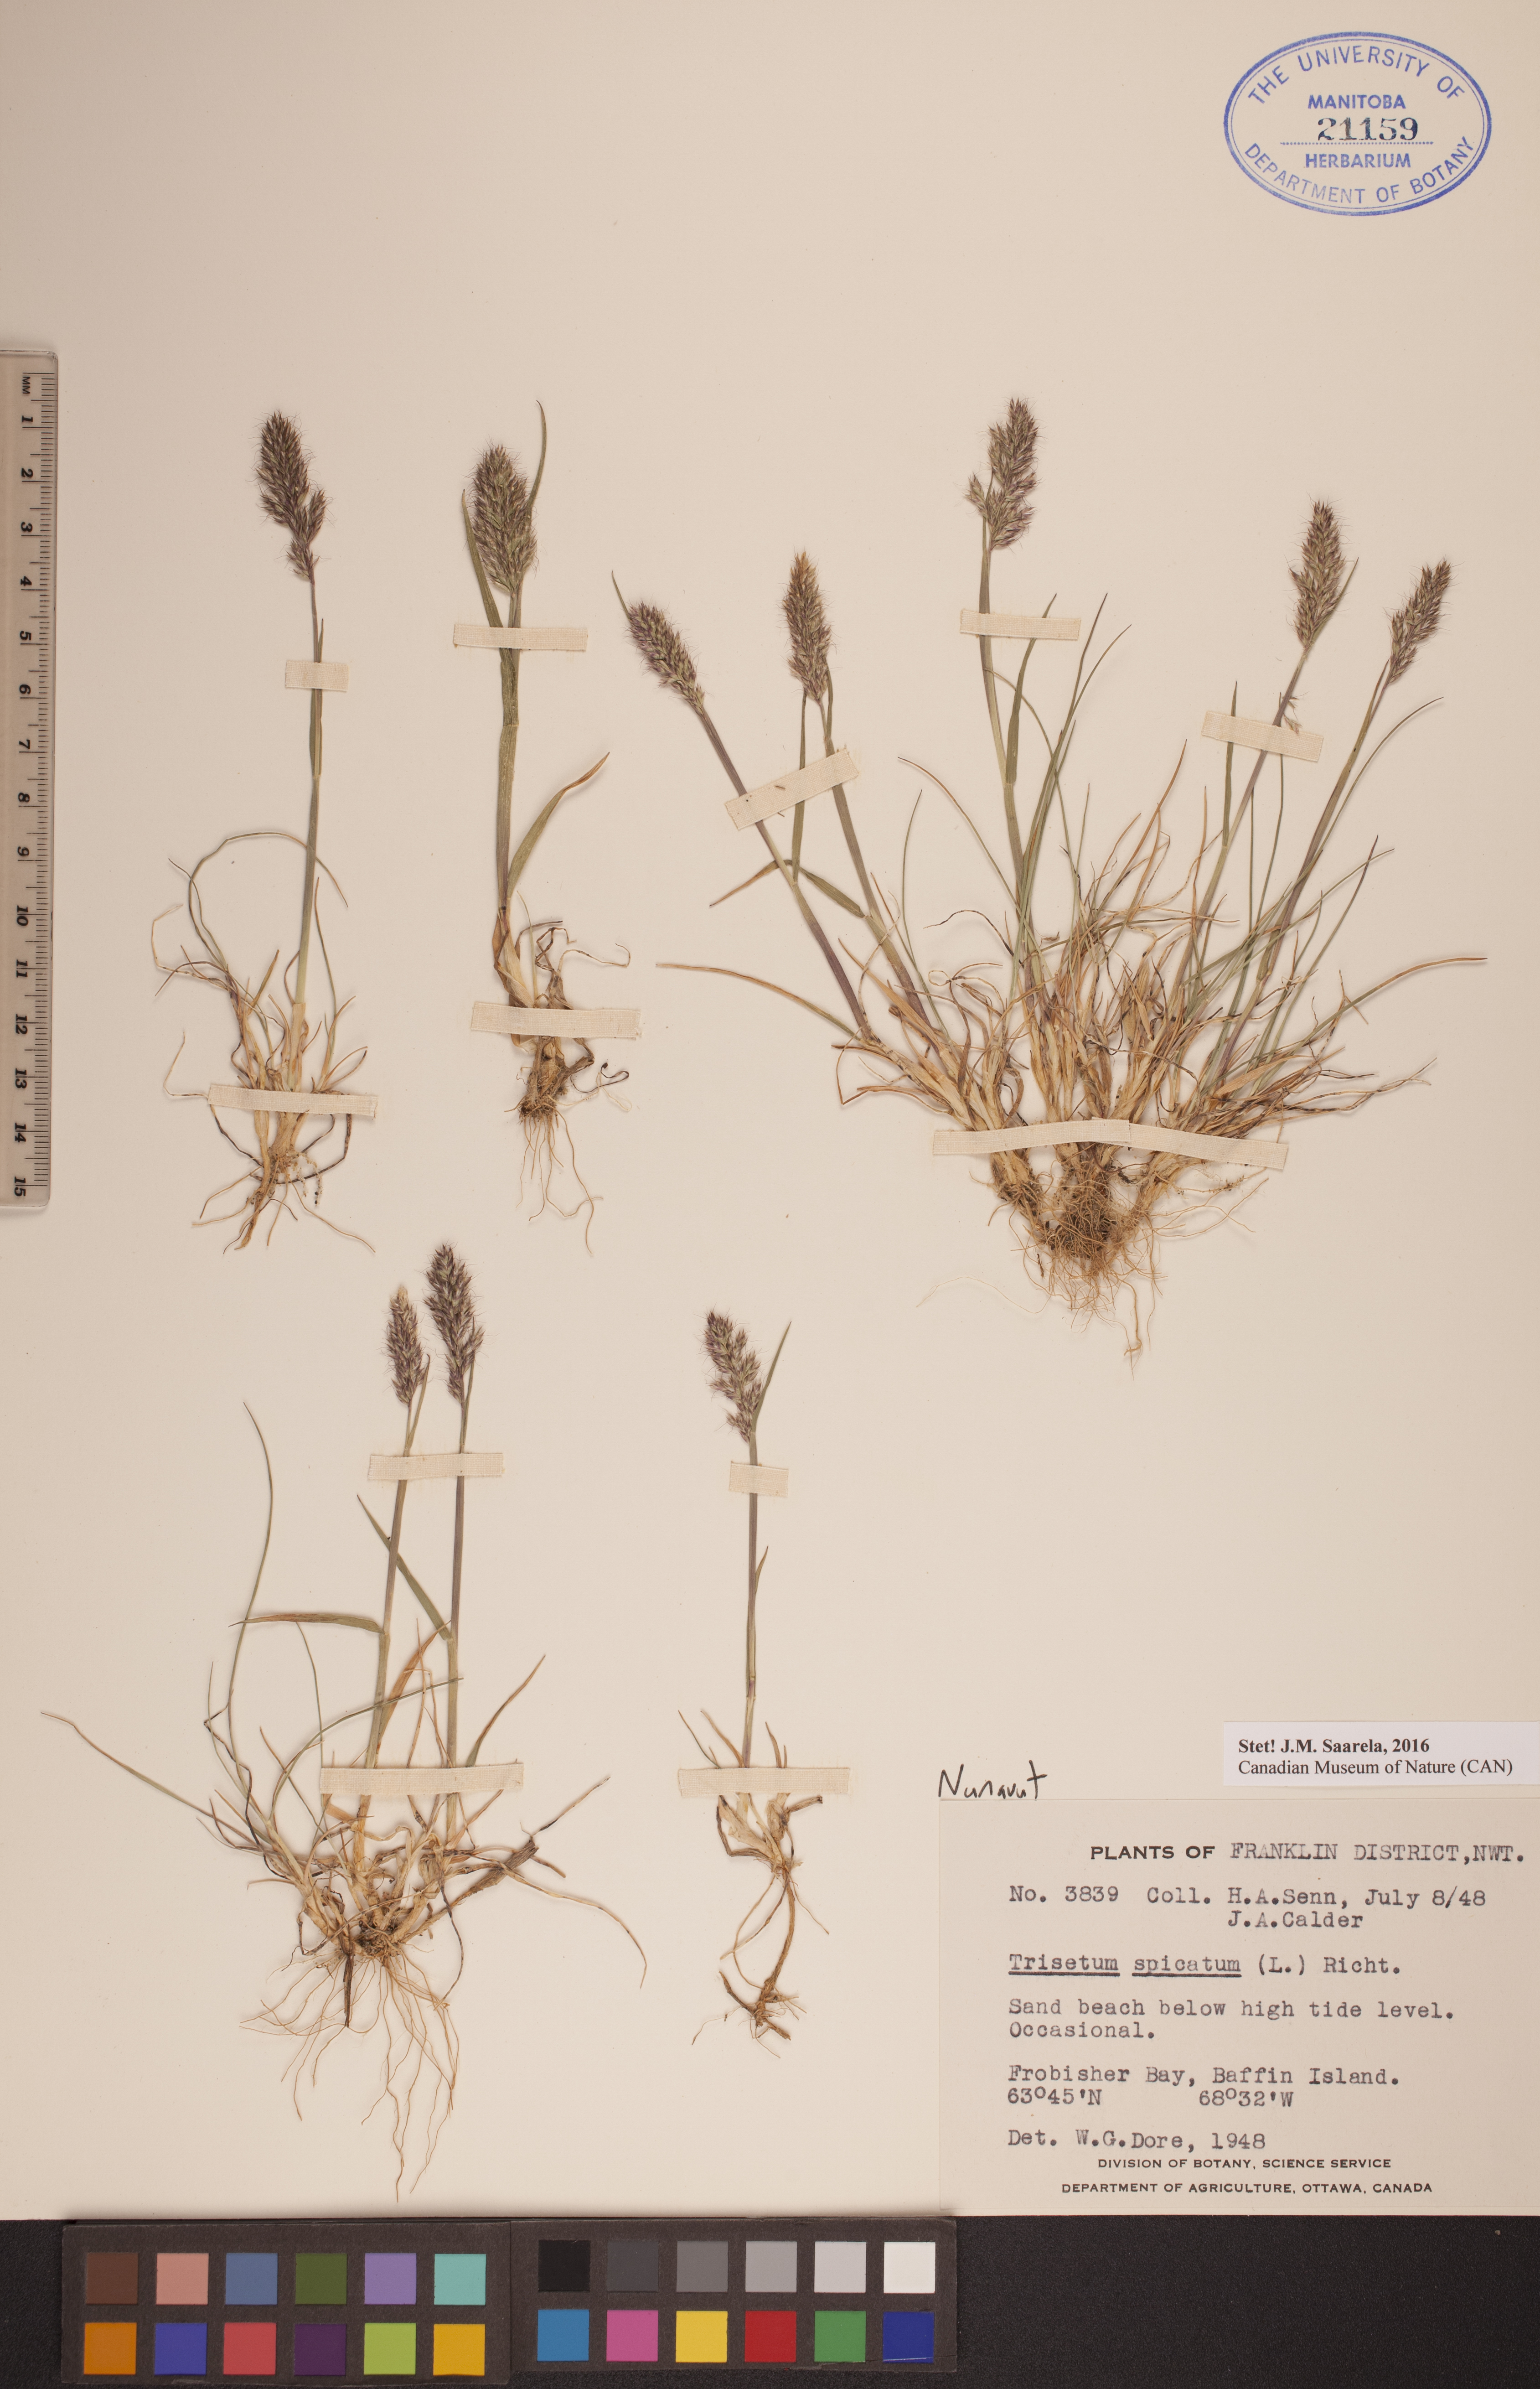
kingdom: Plantae
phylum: Tracheophyta
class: Liliopsida
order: Poales
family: Poaceae
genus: Koeleria
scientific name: Koeleria spicata
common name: Mountain trisetum
